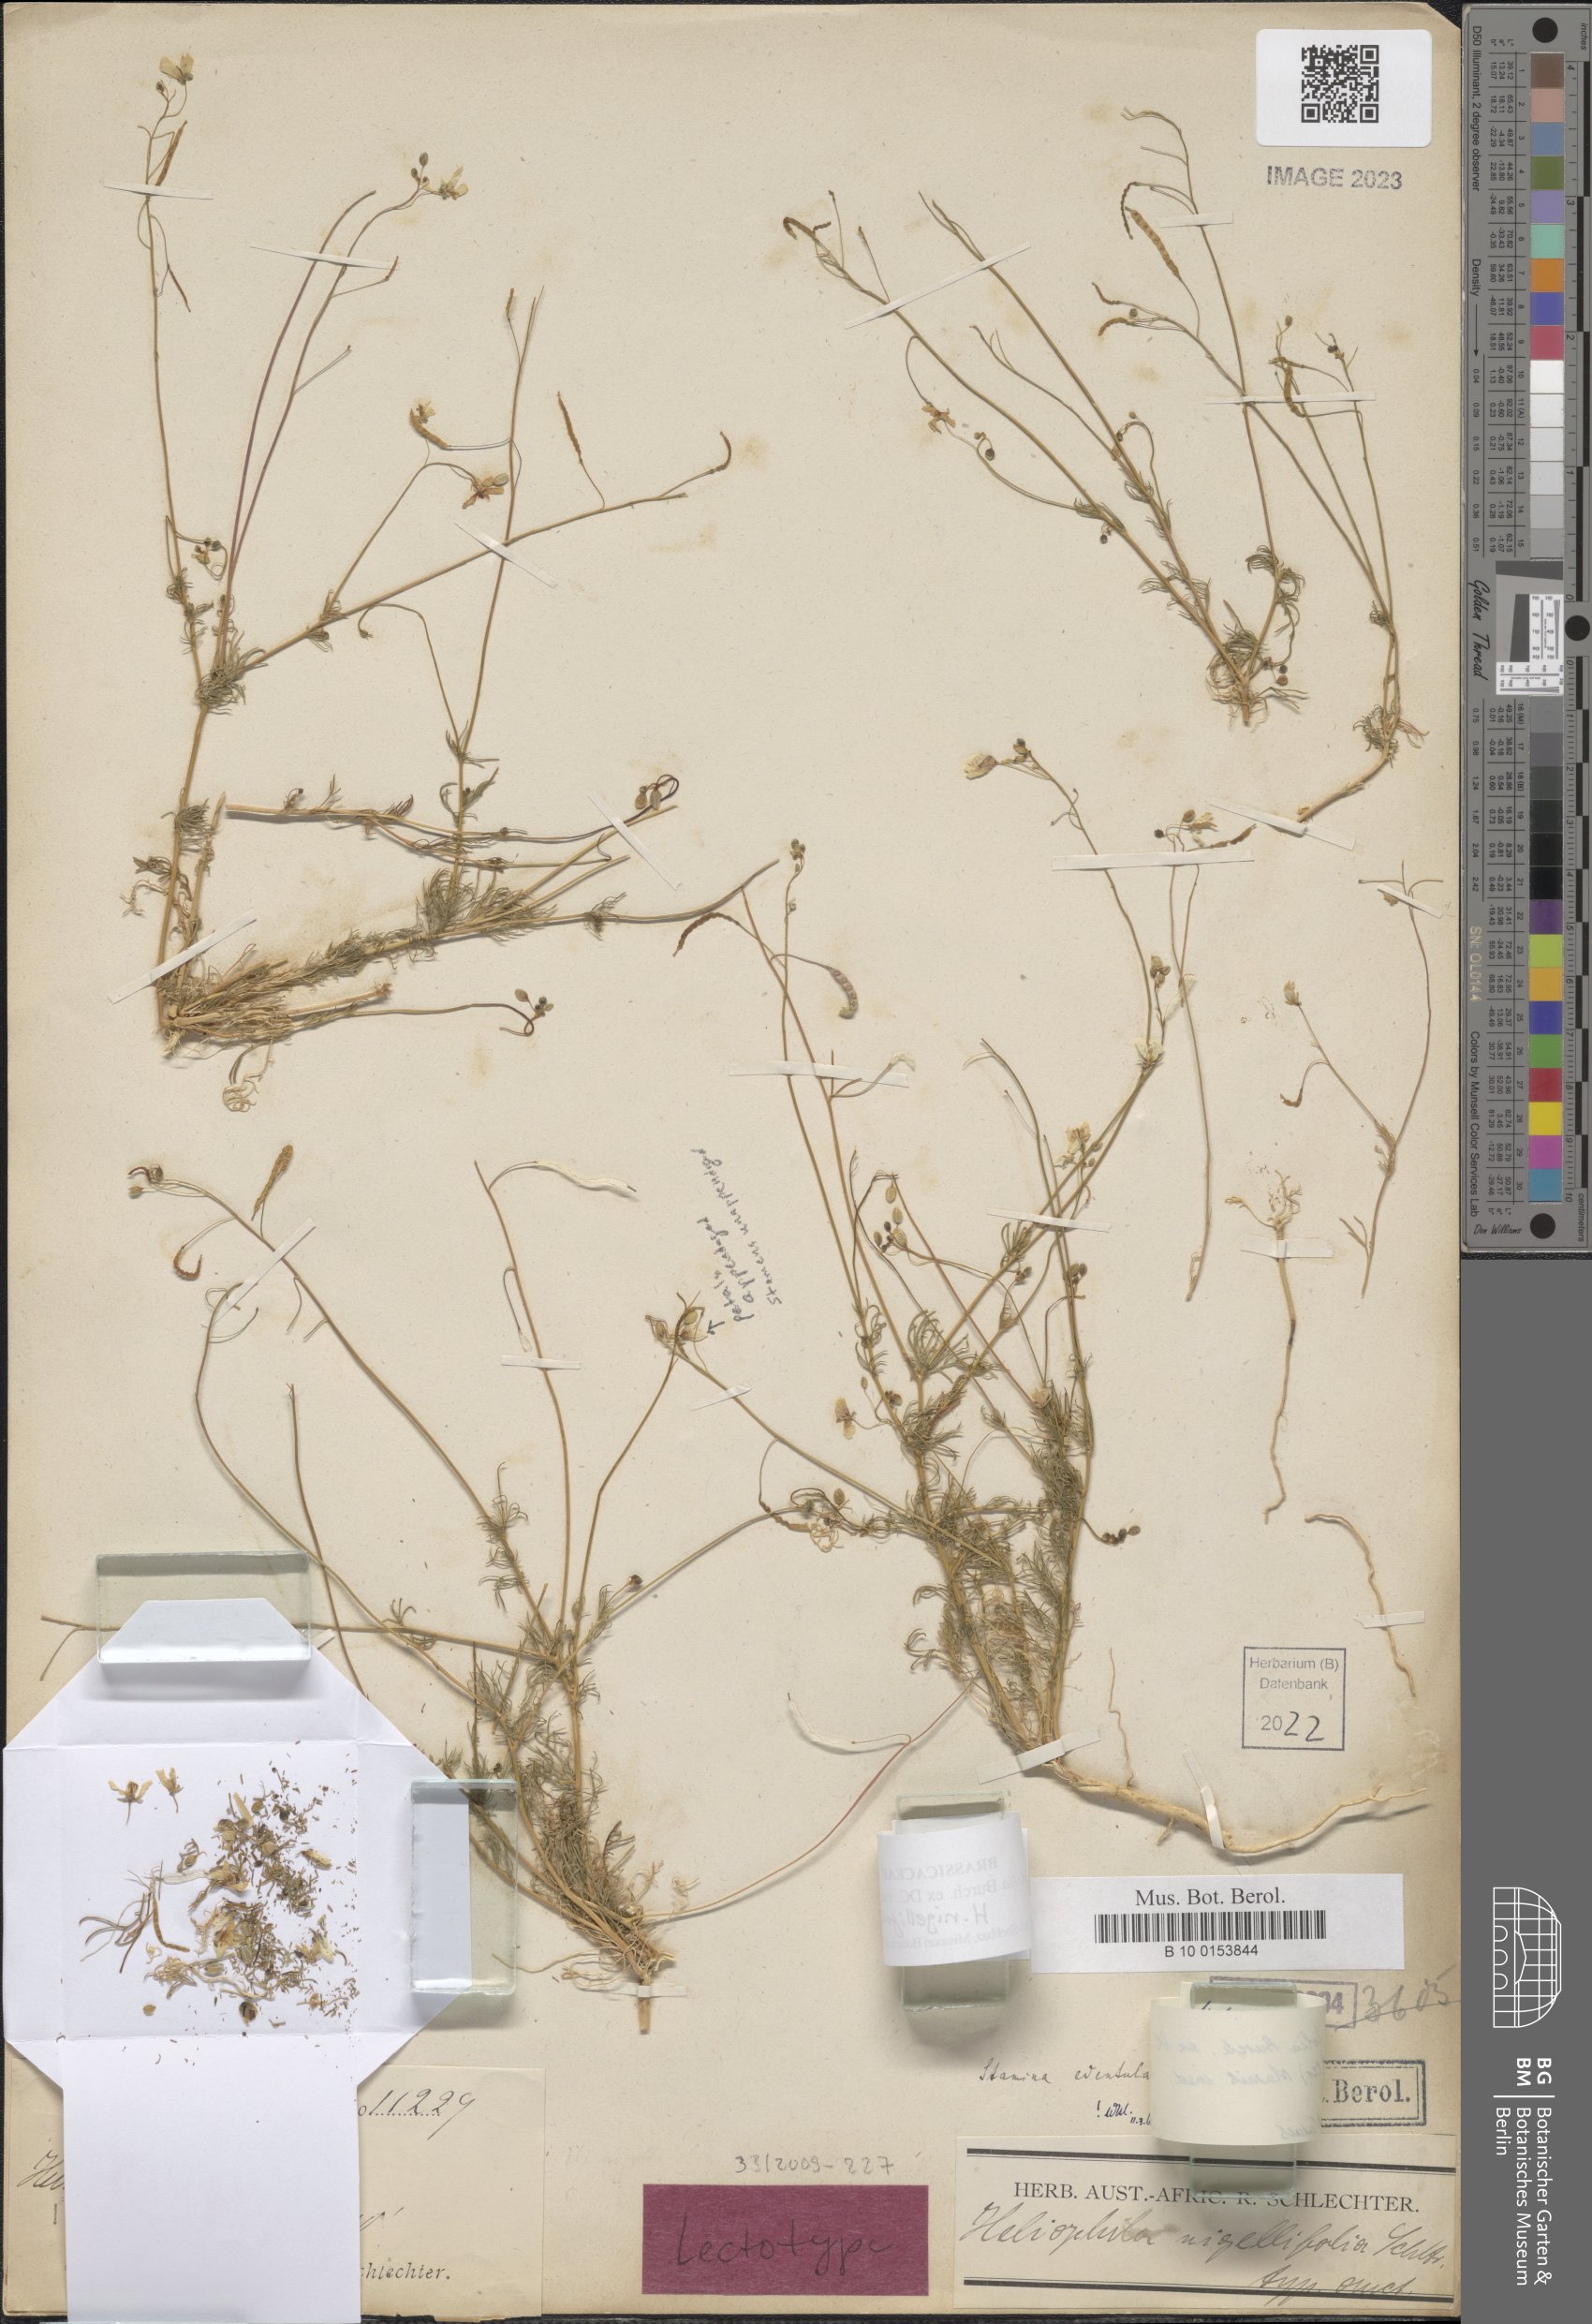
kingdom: Plantae
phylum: Tracheophyta
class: Magnoliopsida
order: Brassicales
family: Brassicaceae
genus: Heliophila
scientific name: Heliophila seselifolia
